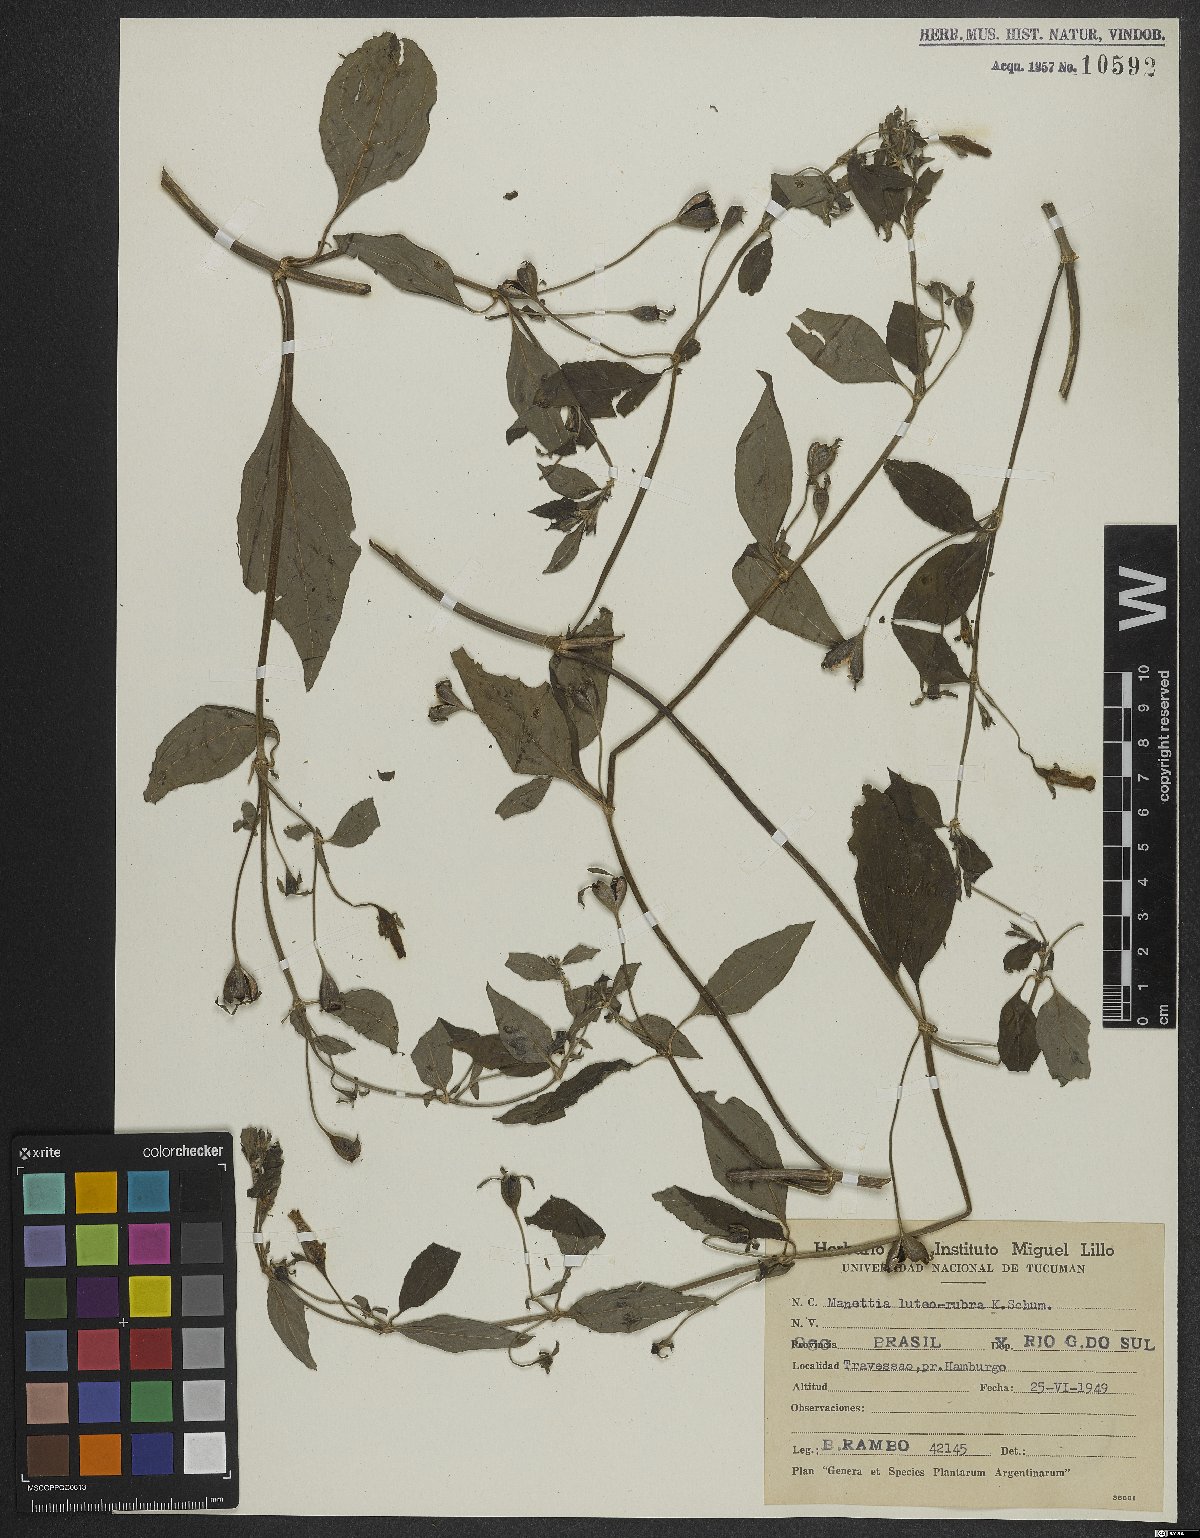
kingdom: Plantae
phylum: Tracheophyta
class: Magnoliopsida
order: Gentianales
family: Rubiaceae
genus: Manettia
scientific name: Manettia luteorubra
